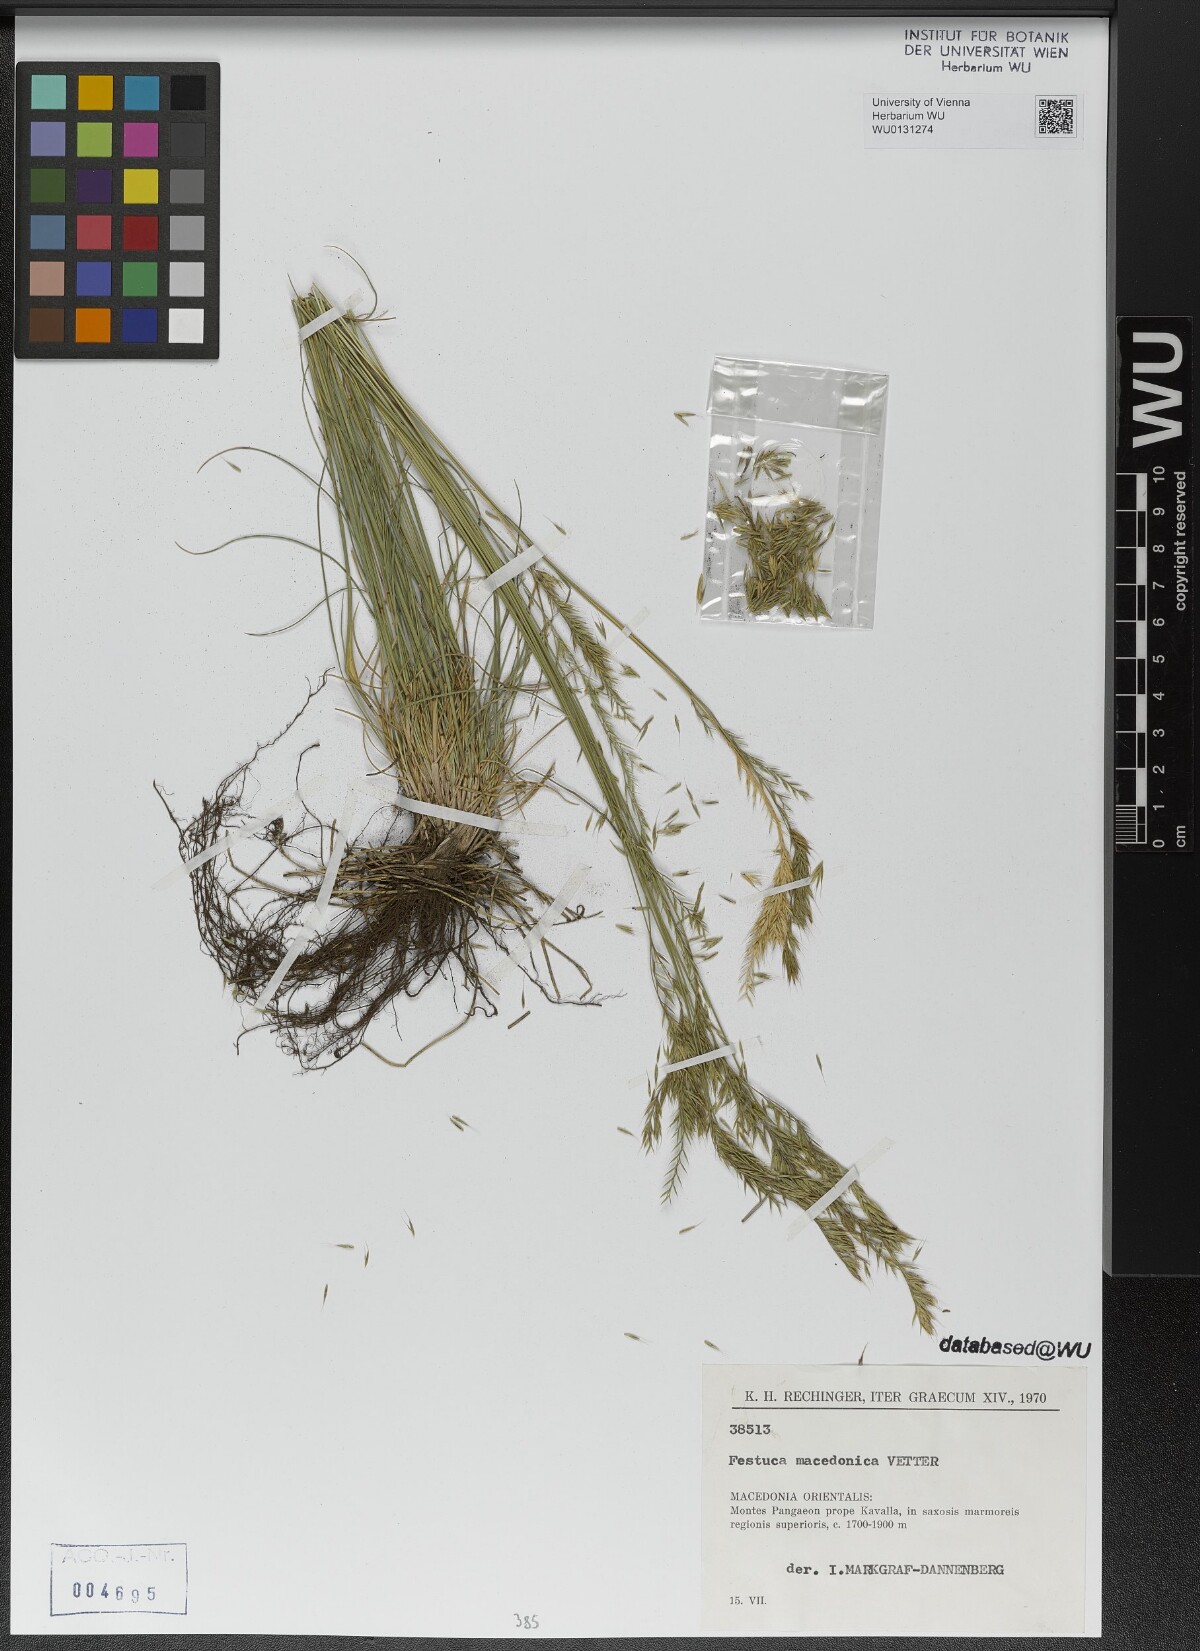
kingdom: Plantae
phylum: Tracheophyta
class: Liliopsida
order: Poales
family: Poaceae
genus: Festuca
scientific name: Festuca macedonica
